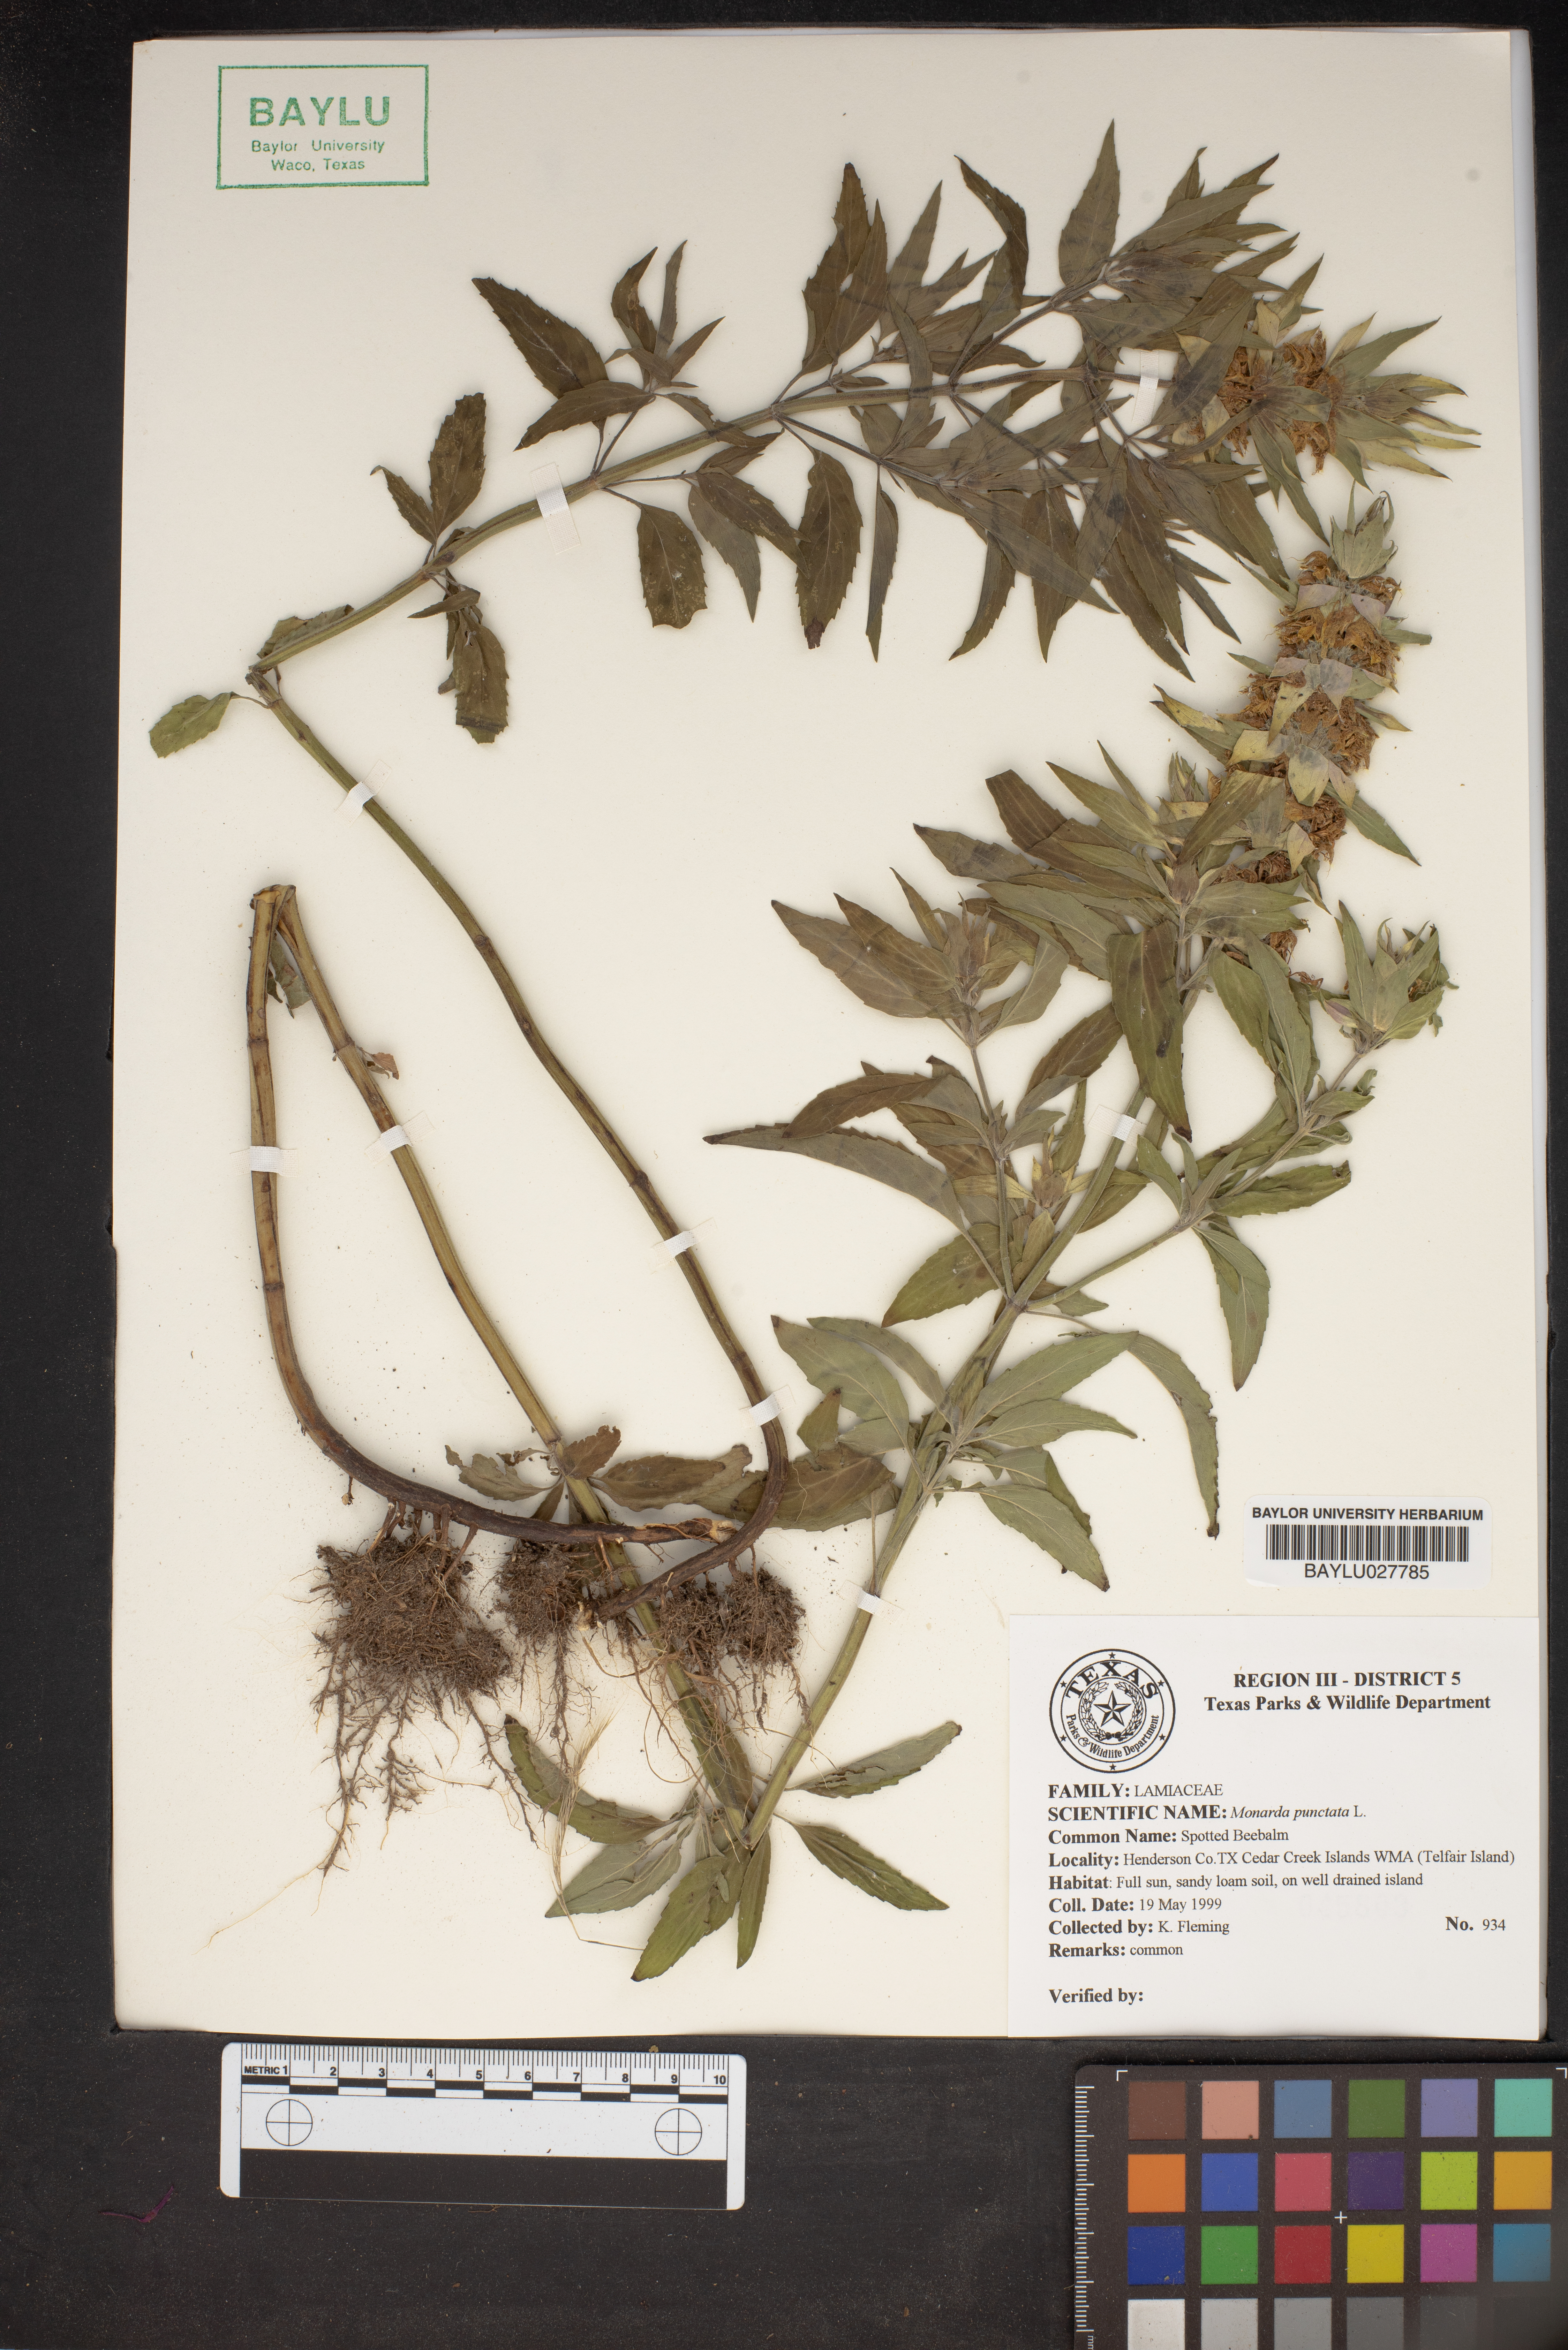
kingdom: Plantae
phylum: Tracheophyta
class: Magnoliopsida
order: Lamiales
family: Lamiaceae
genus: Monarda
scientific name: Monarda punctata
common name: Dotted monarda
